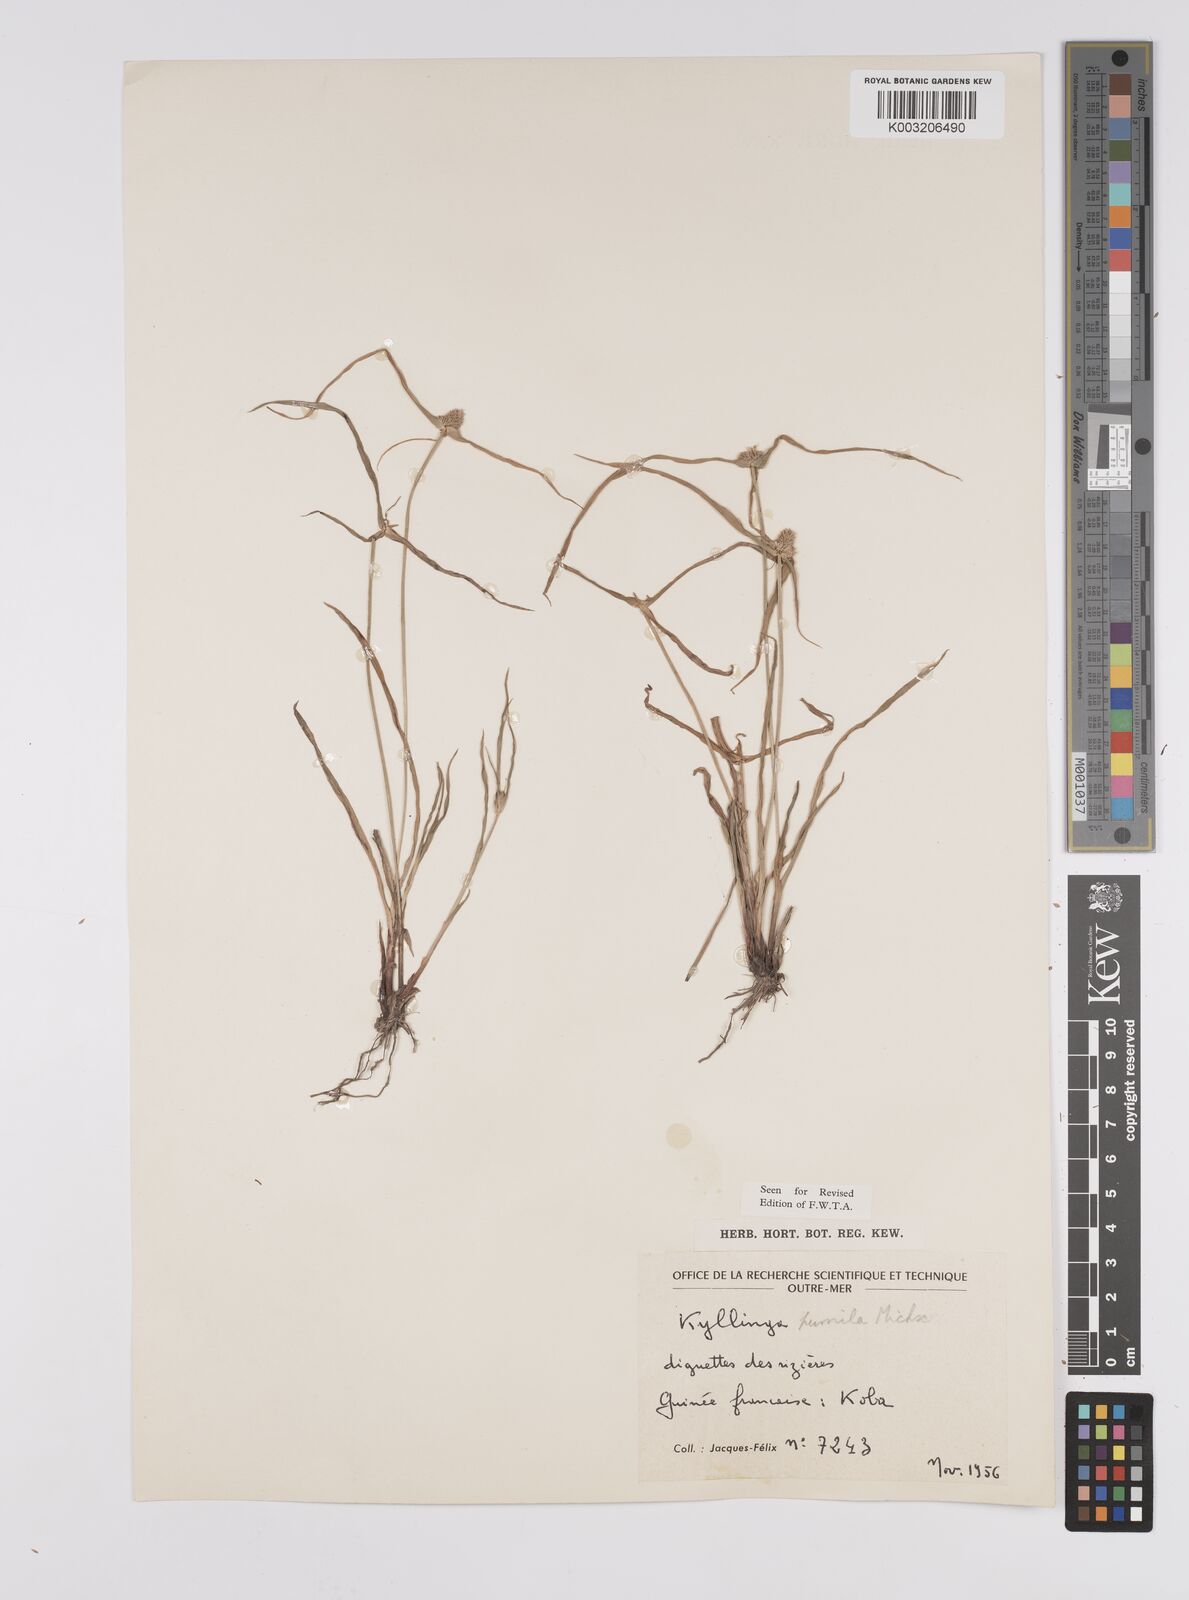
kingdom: Plantae
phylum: Tracheophyta
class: Liliopsida
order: Poales
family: Cyperaceae
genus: Cyperus
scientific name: Cyperus
